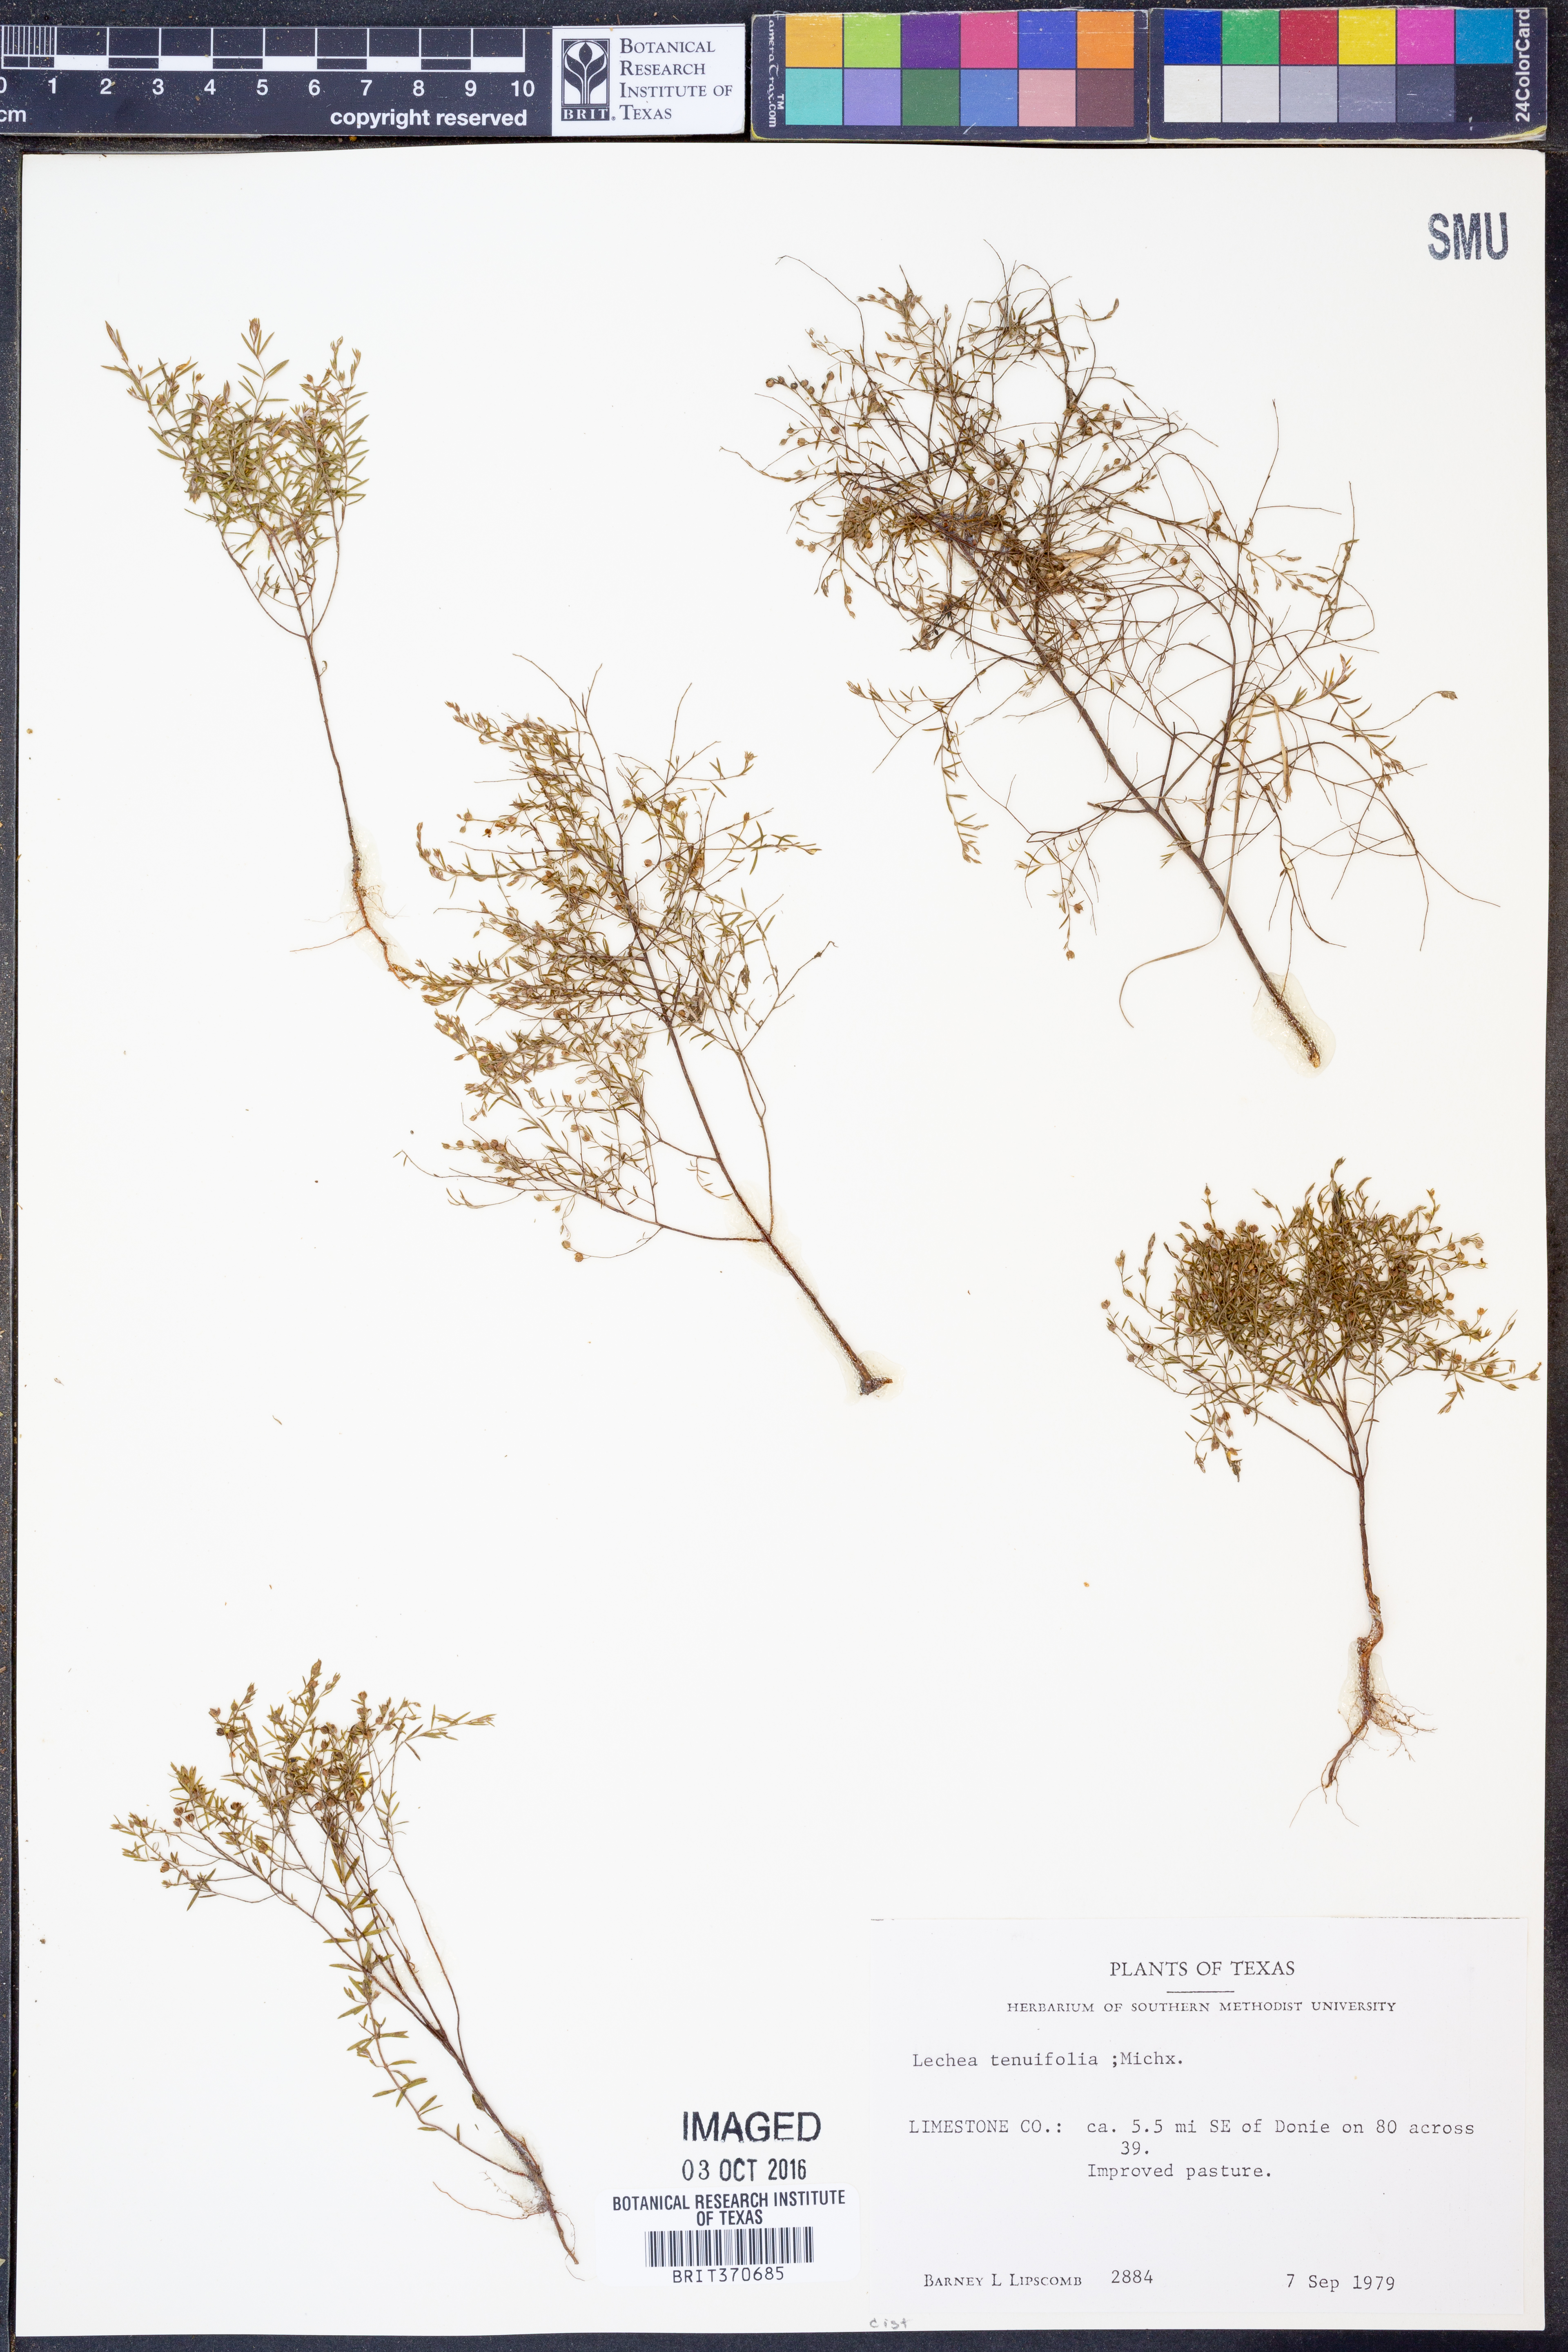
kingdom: Plantae
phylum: Tracheophyta
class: Magnoliopsida
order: Malvales
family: Cistaceae
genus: Lechea
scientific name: Lechea tenuifolia
